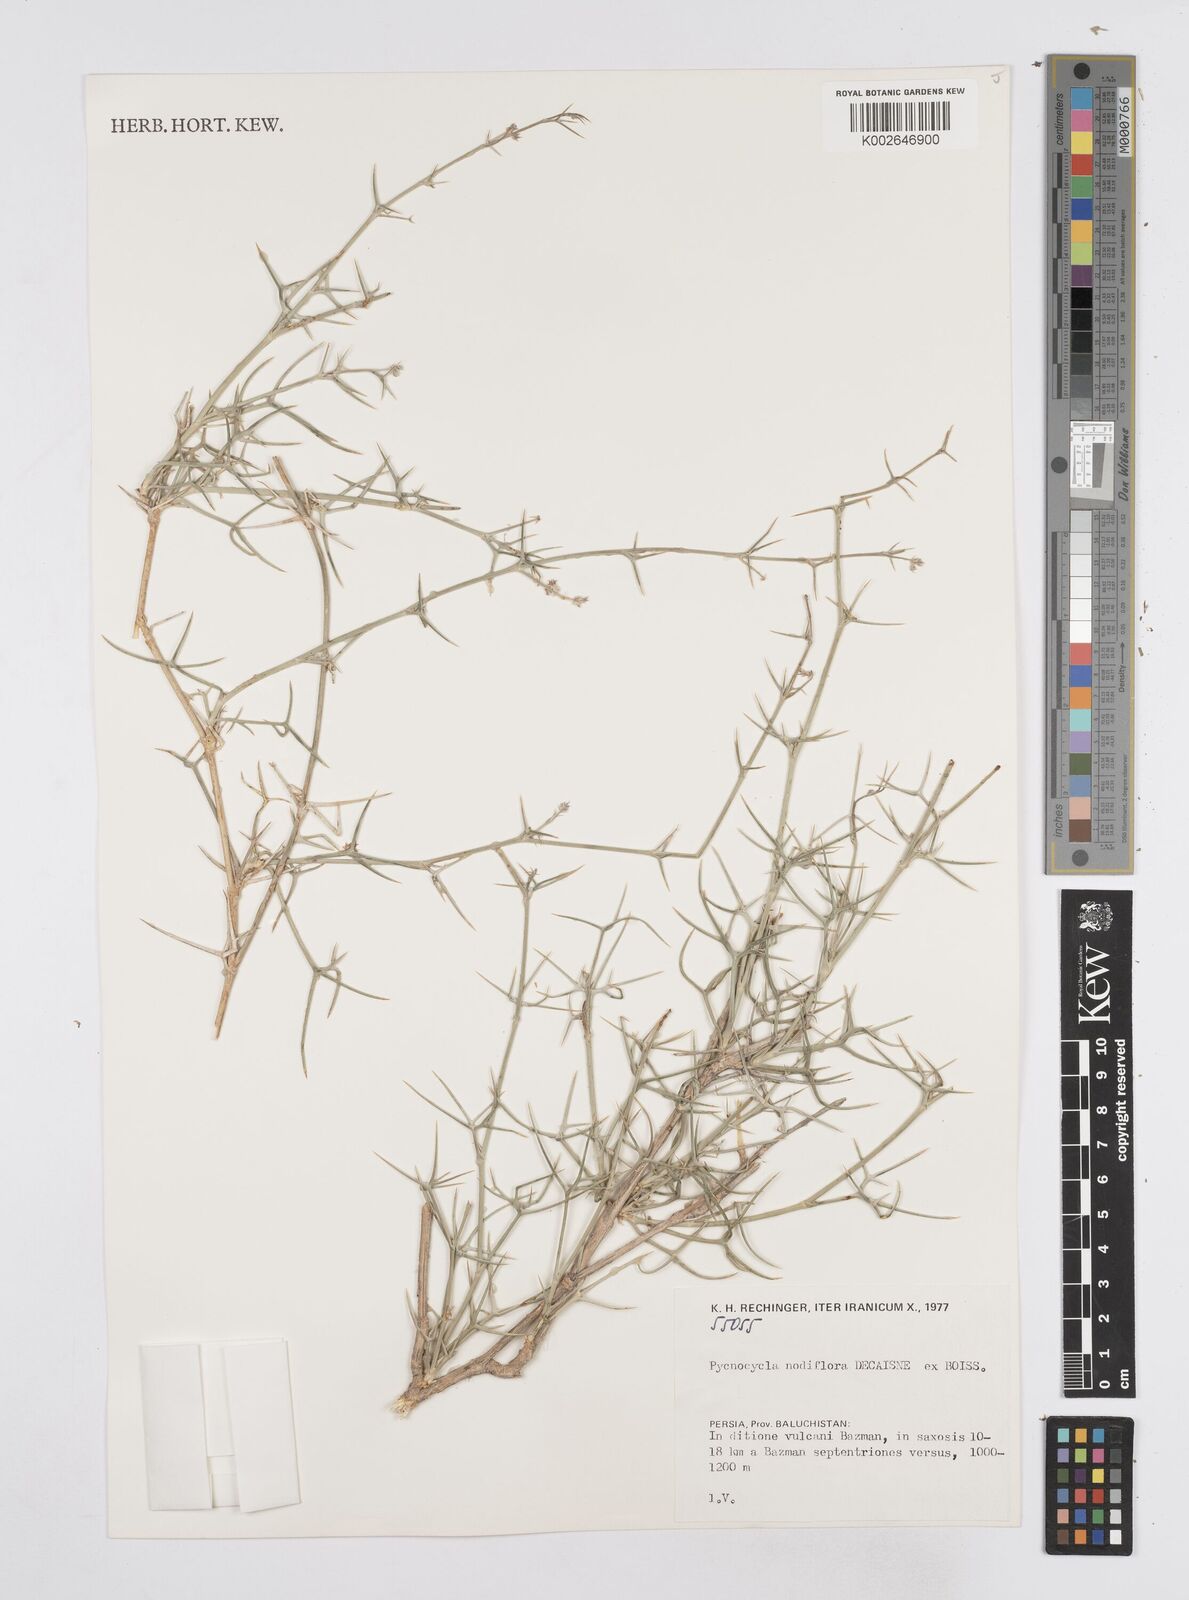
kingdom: Plantae
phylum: Tracheophyta
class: Magnoliopsida
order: Apiales
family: Apiaceae
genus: Pycnocycla
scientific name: Pycnocycla nodiflora
